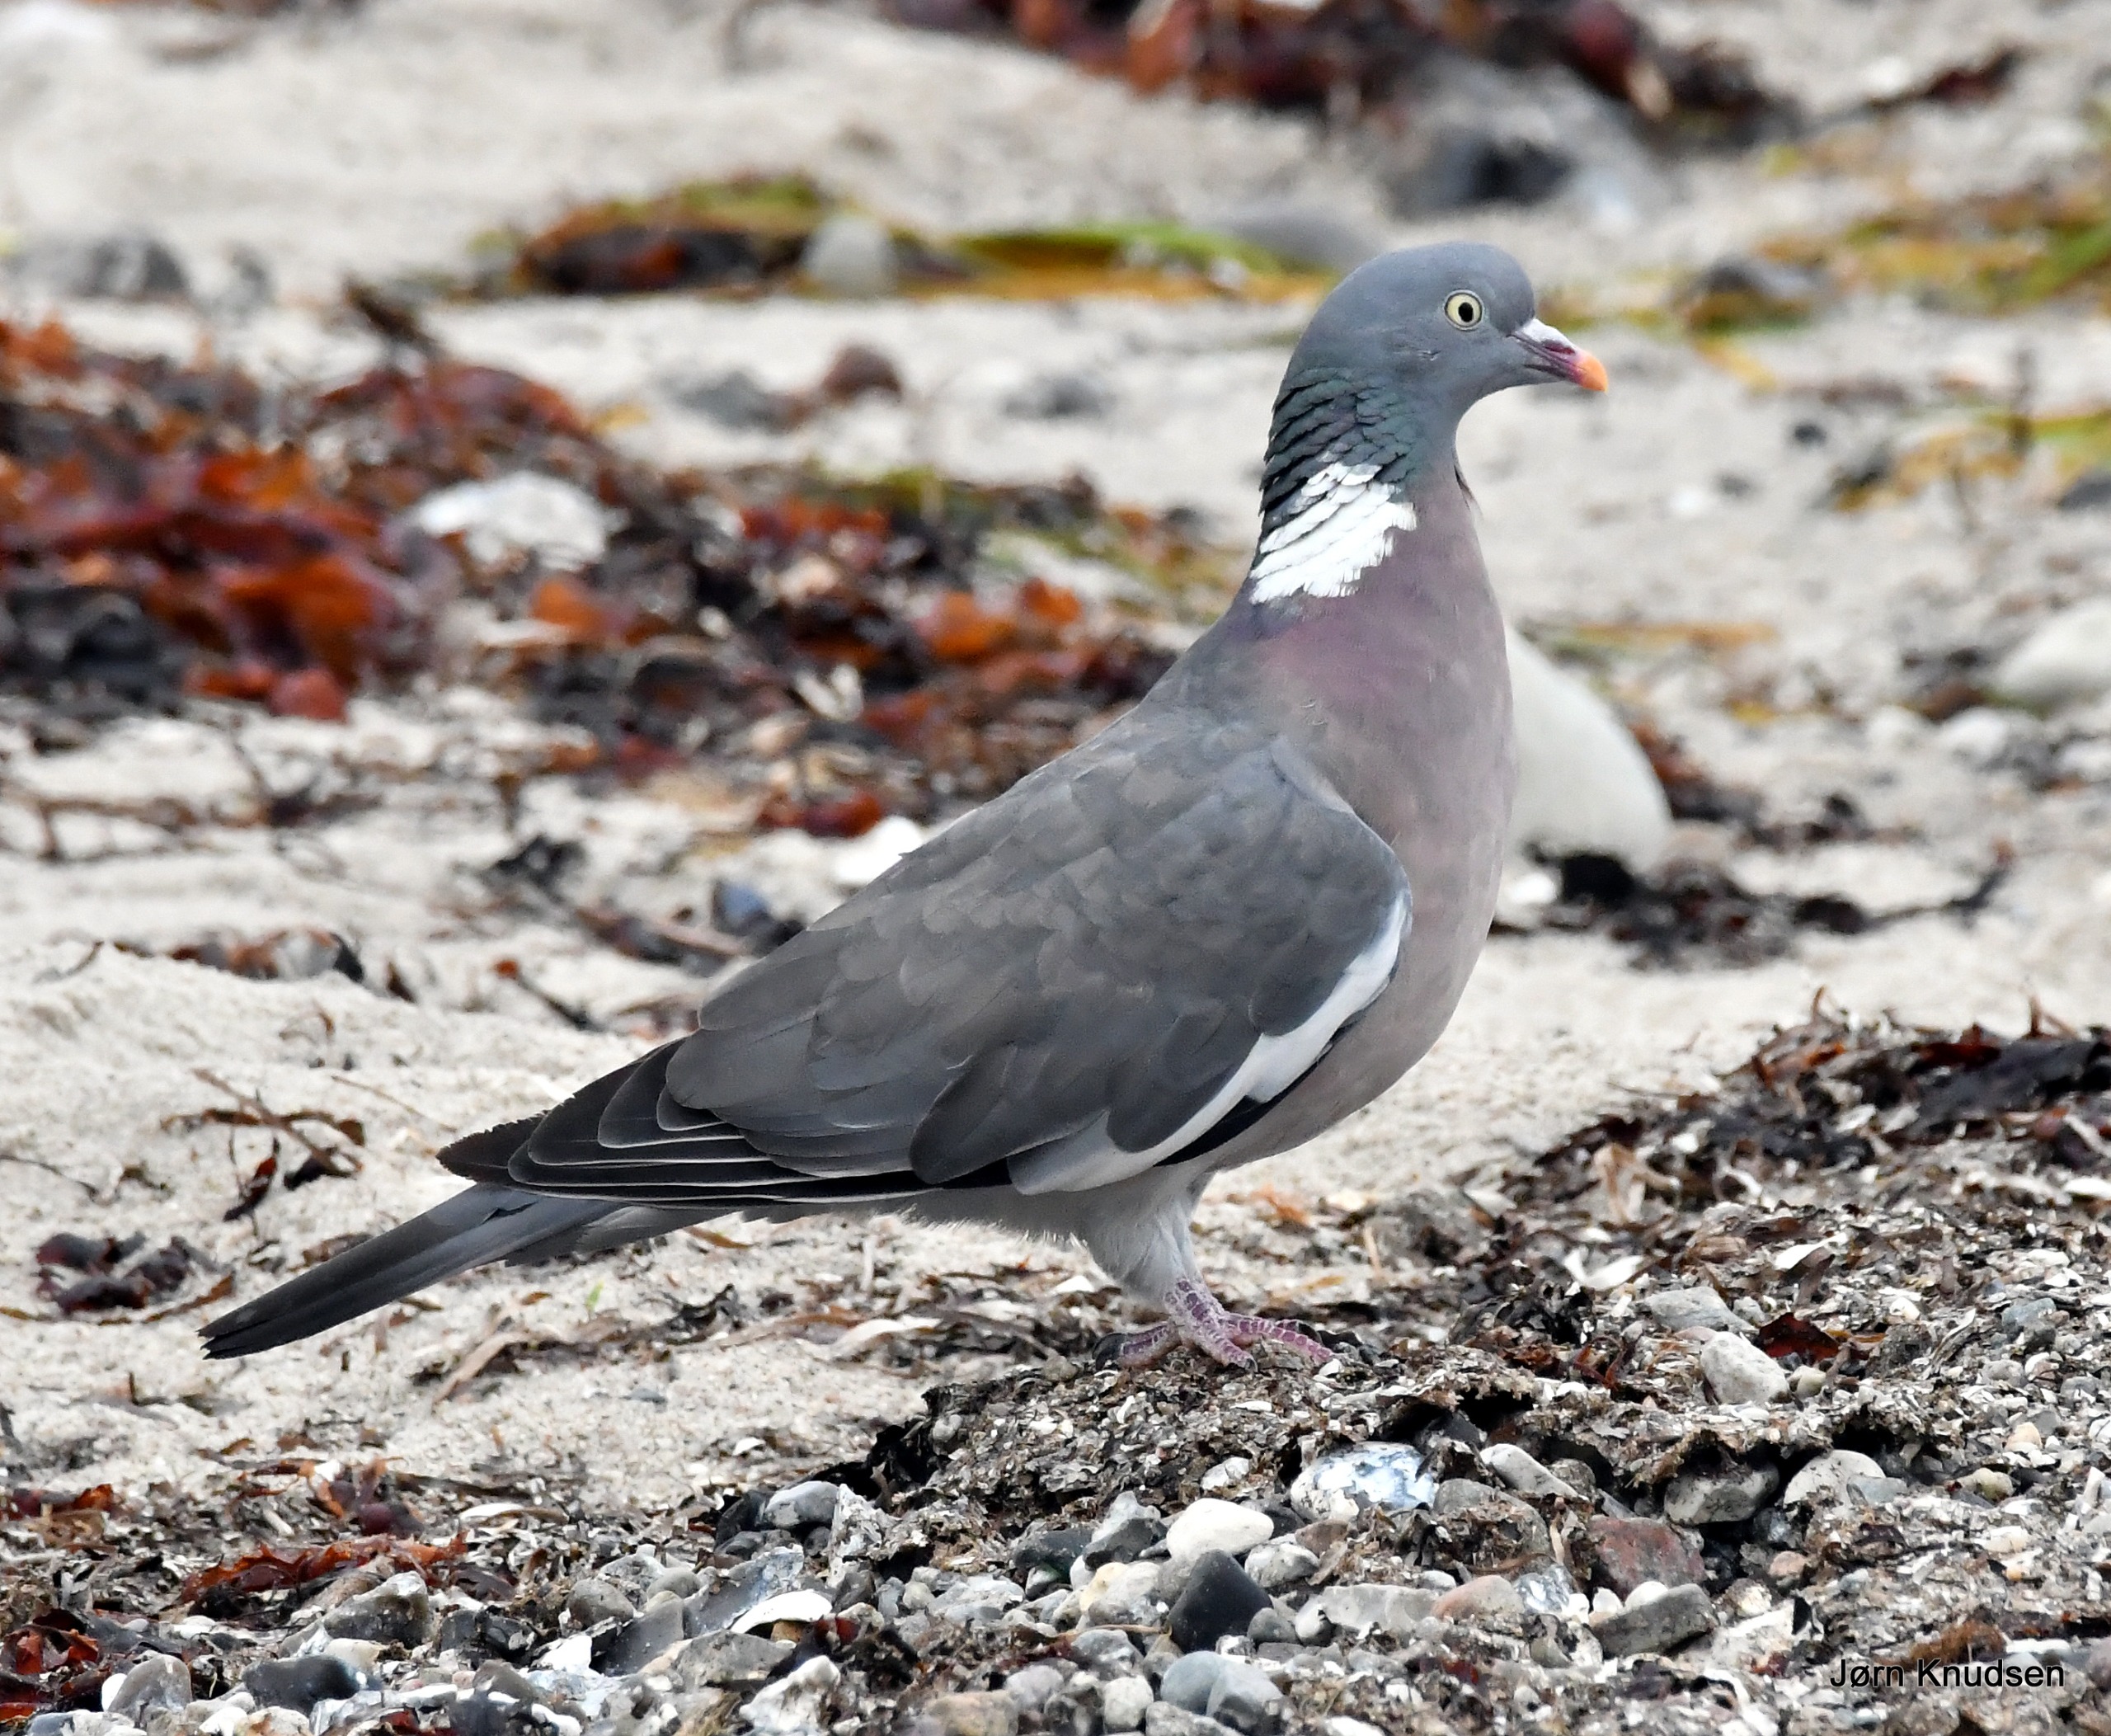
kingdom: Animalia
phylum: Chordata
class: Aves
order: Columbiformes
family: Columbidae
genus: Columba
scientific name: Columba palumbus
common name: Ringdue
